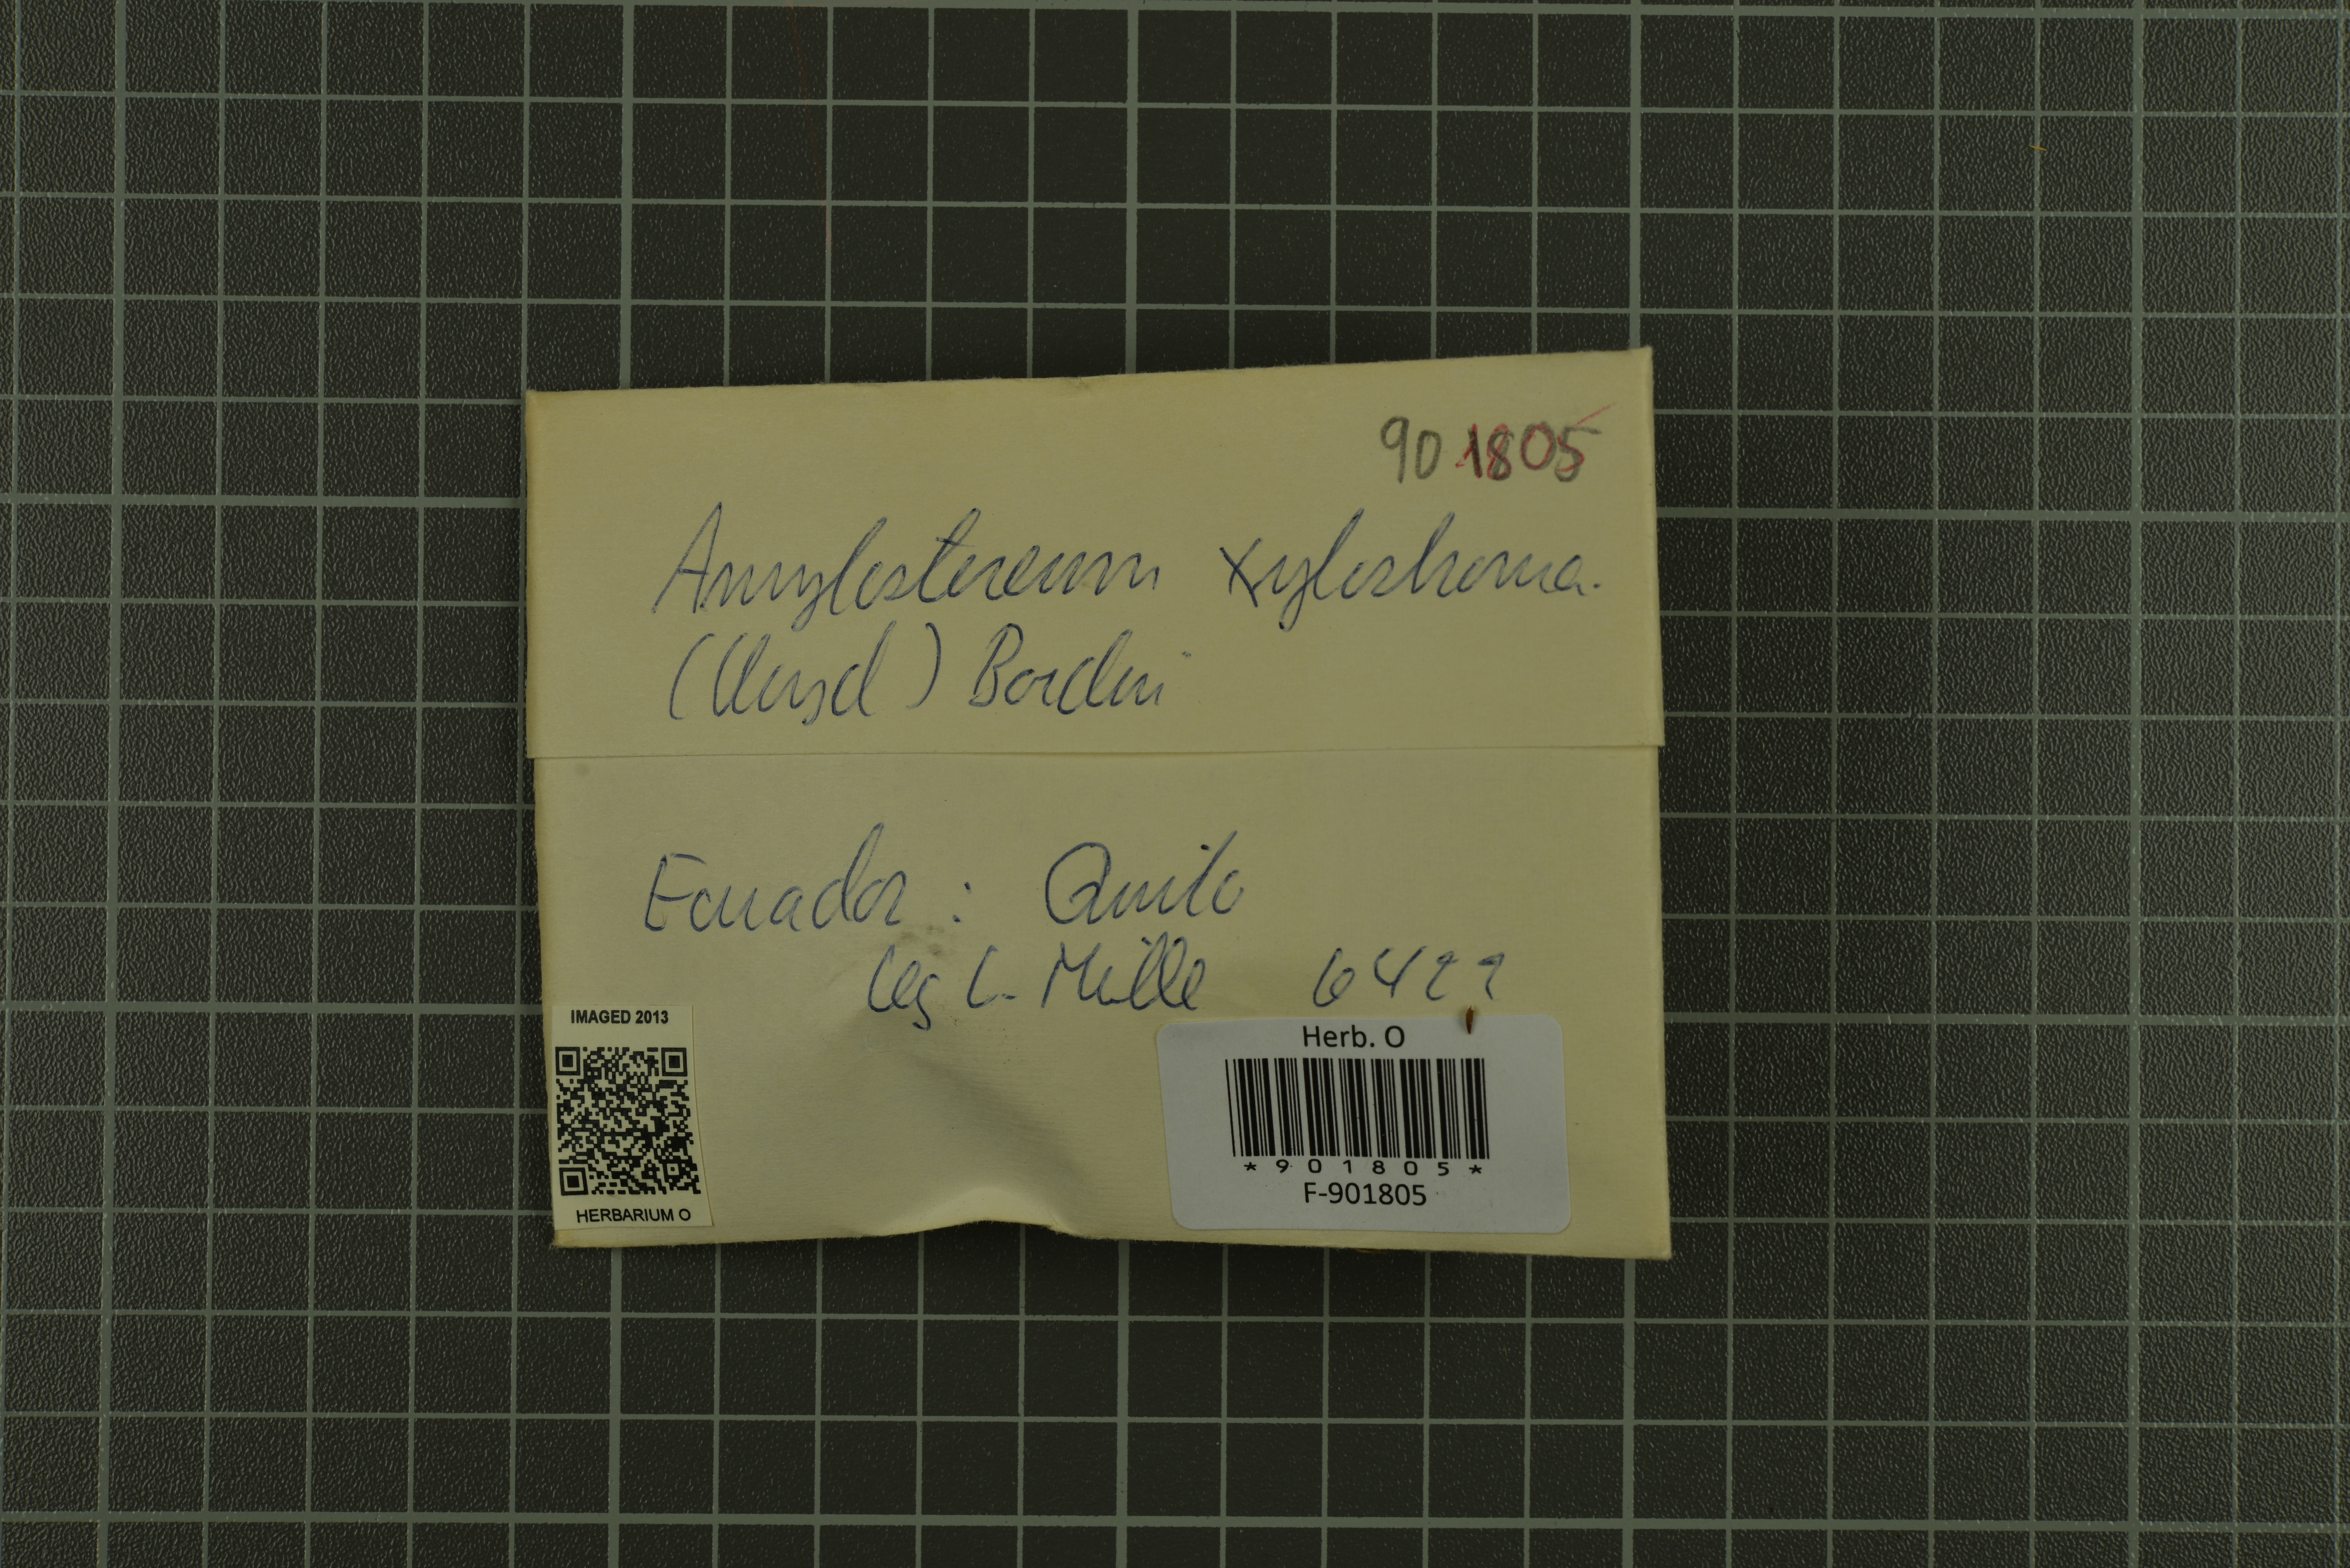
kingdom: Fungi
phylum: Basidiomycota
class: Agaricomycetes
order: Russulales
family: Echinodontiaceae
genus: Amylostereum
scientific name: Amylostereum ferreum
